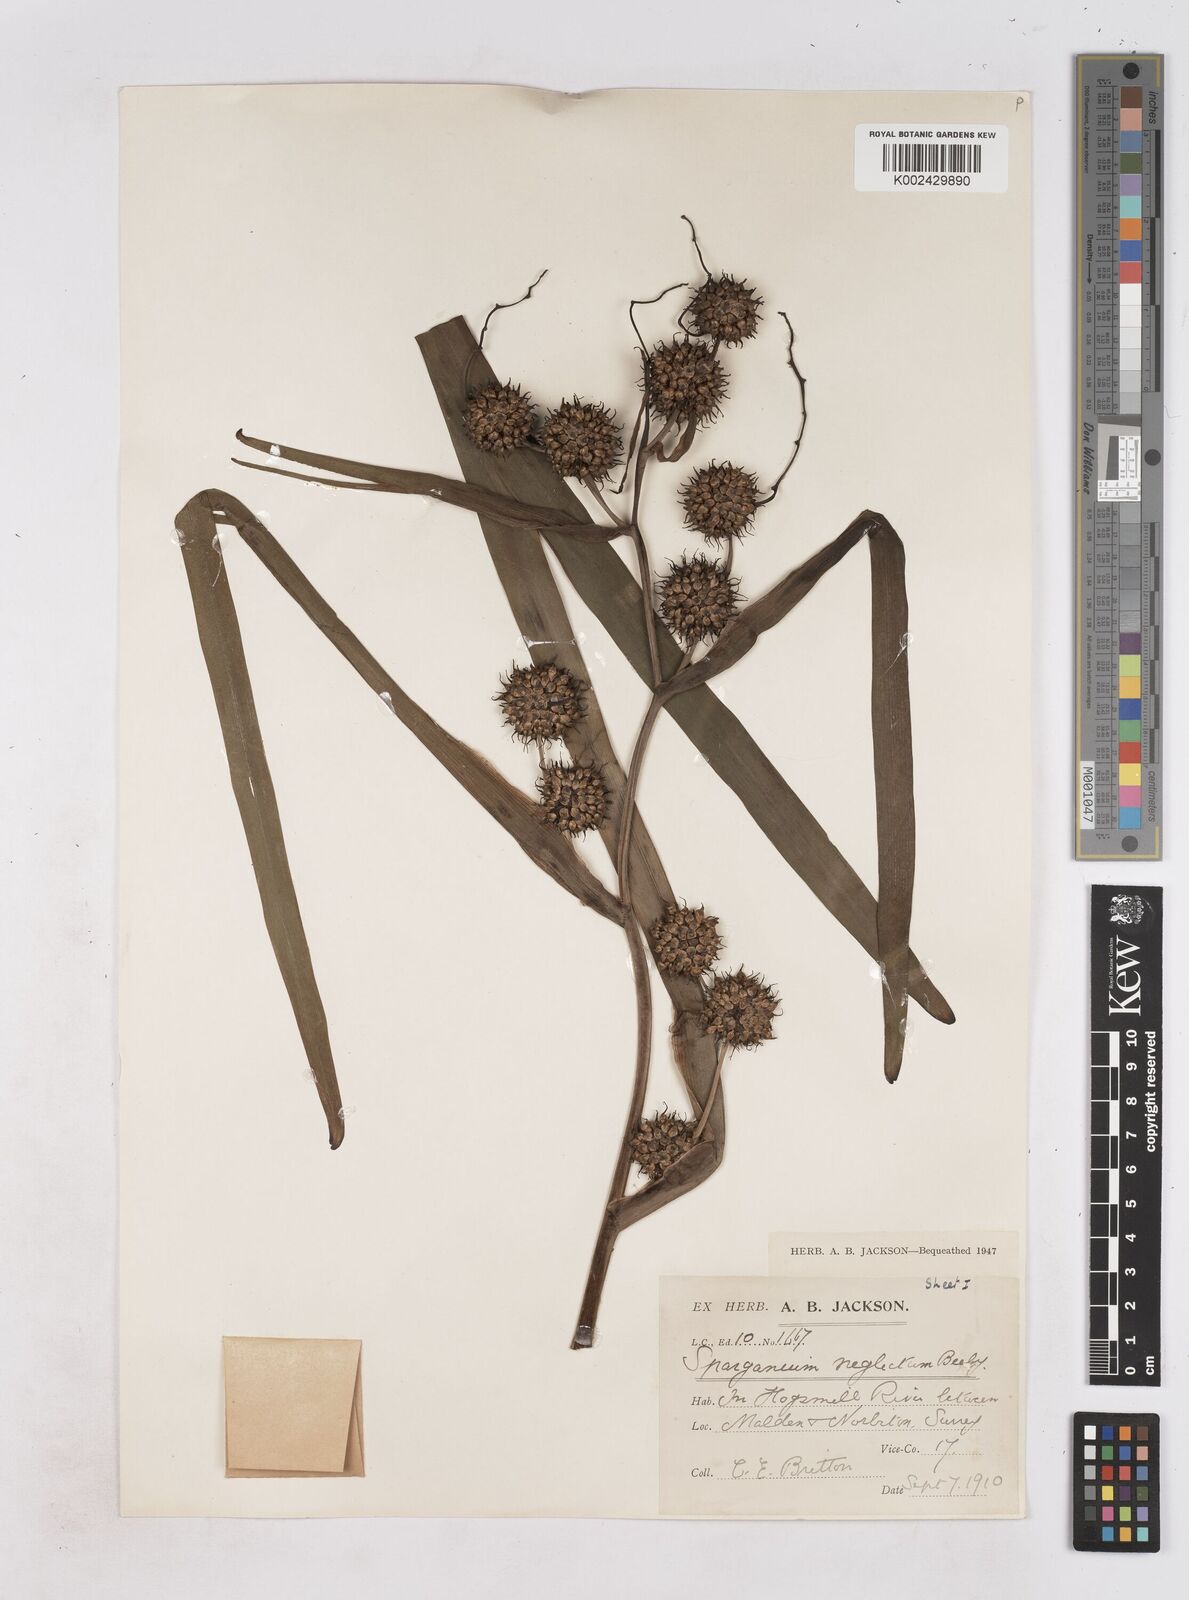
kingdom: Plantae
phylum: Tracheophyta
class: Liliopsida
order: Poales
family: Typhaceae
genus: Sparganium
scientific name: Sparganium erectum
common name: Branched bur-reed
